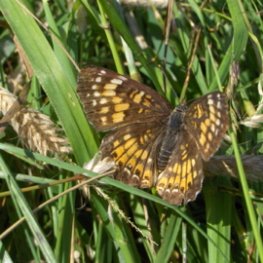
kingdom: Animalia
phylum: Arthropoda
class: Insecta
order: Lepidoptera
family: Nymphalidae
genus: Chlosyne
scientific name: Chlosyne harrisii
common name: Harris's Checkerspot
